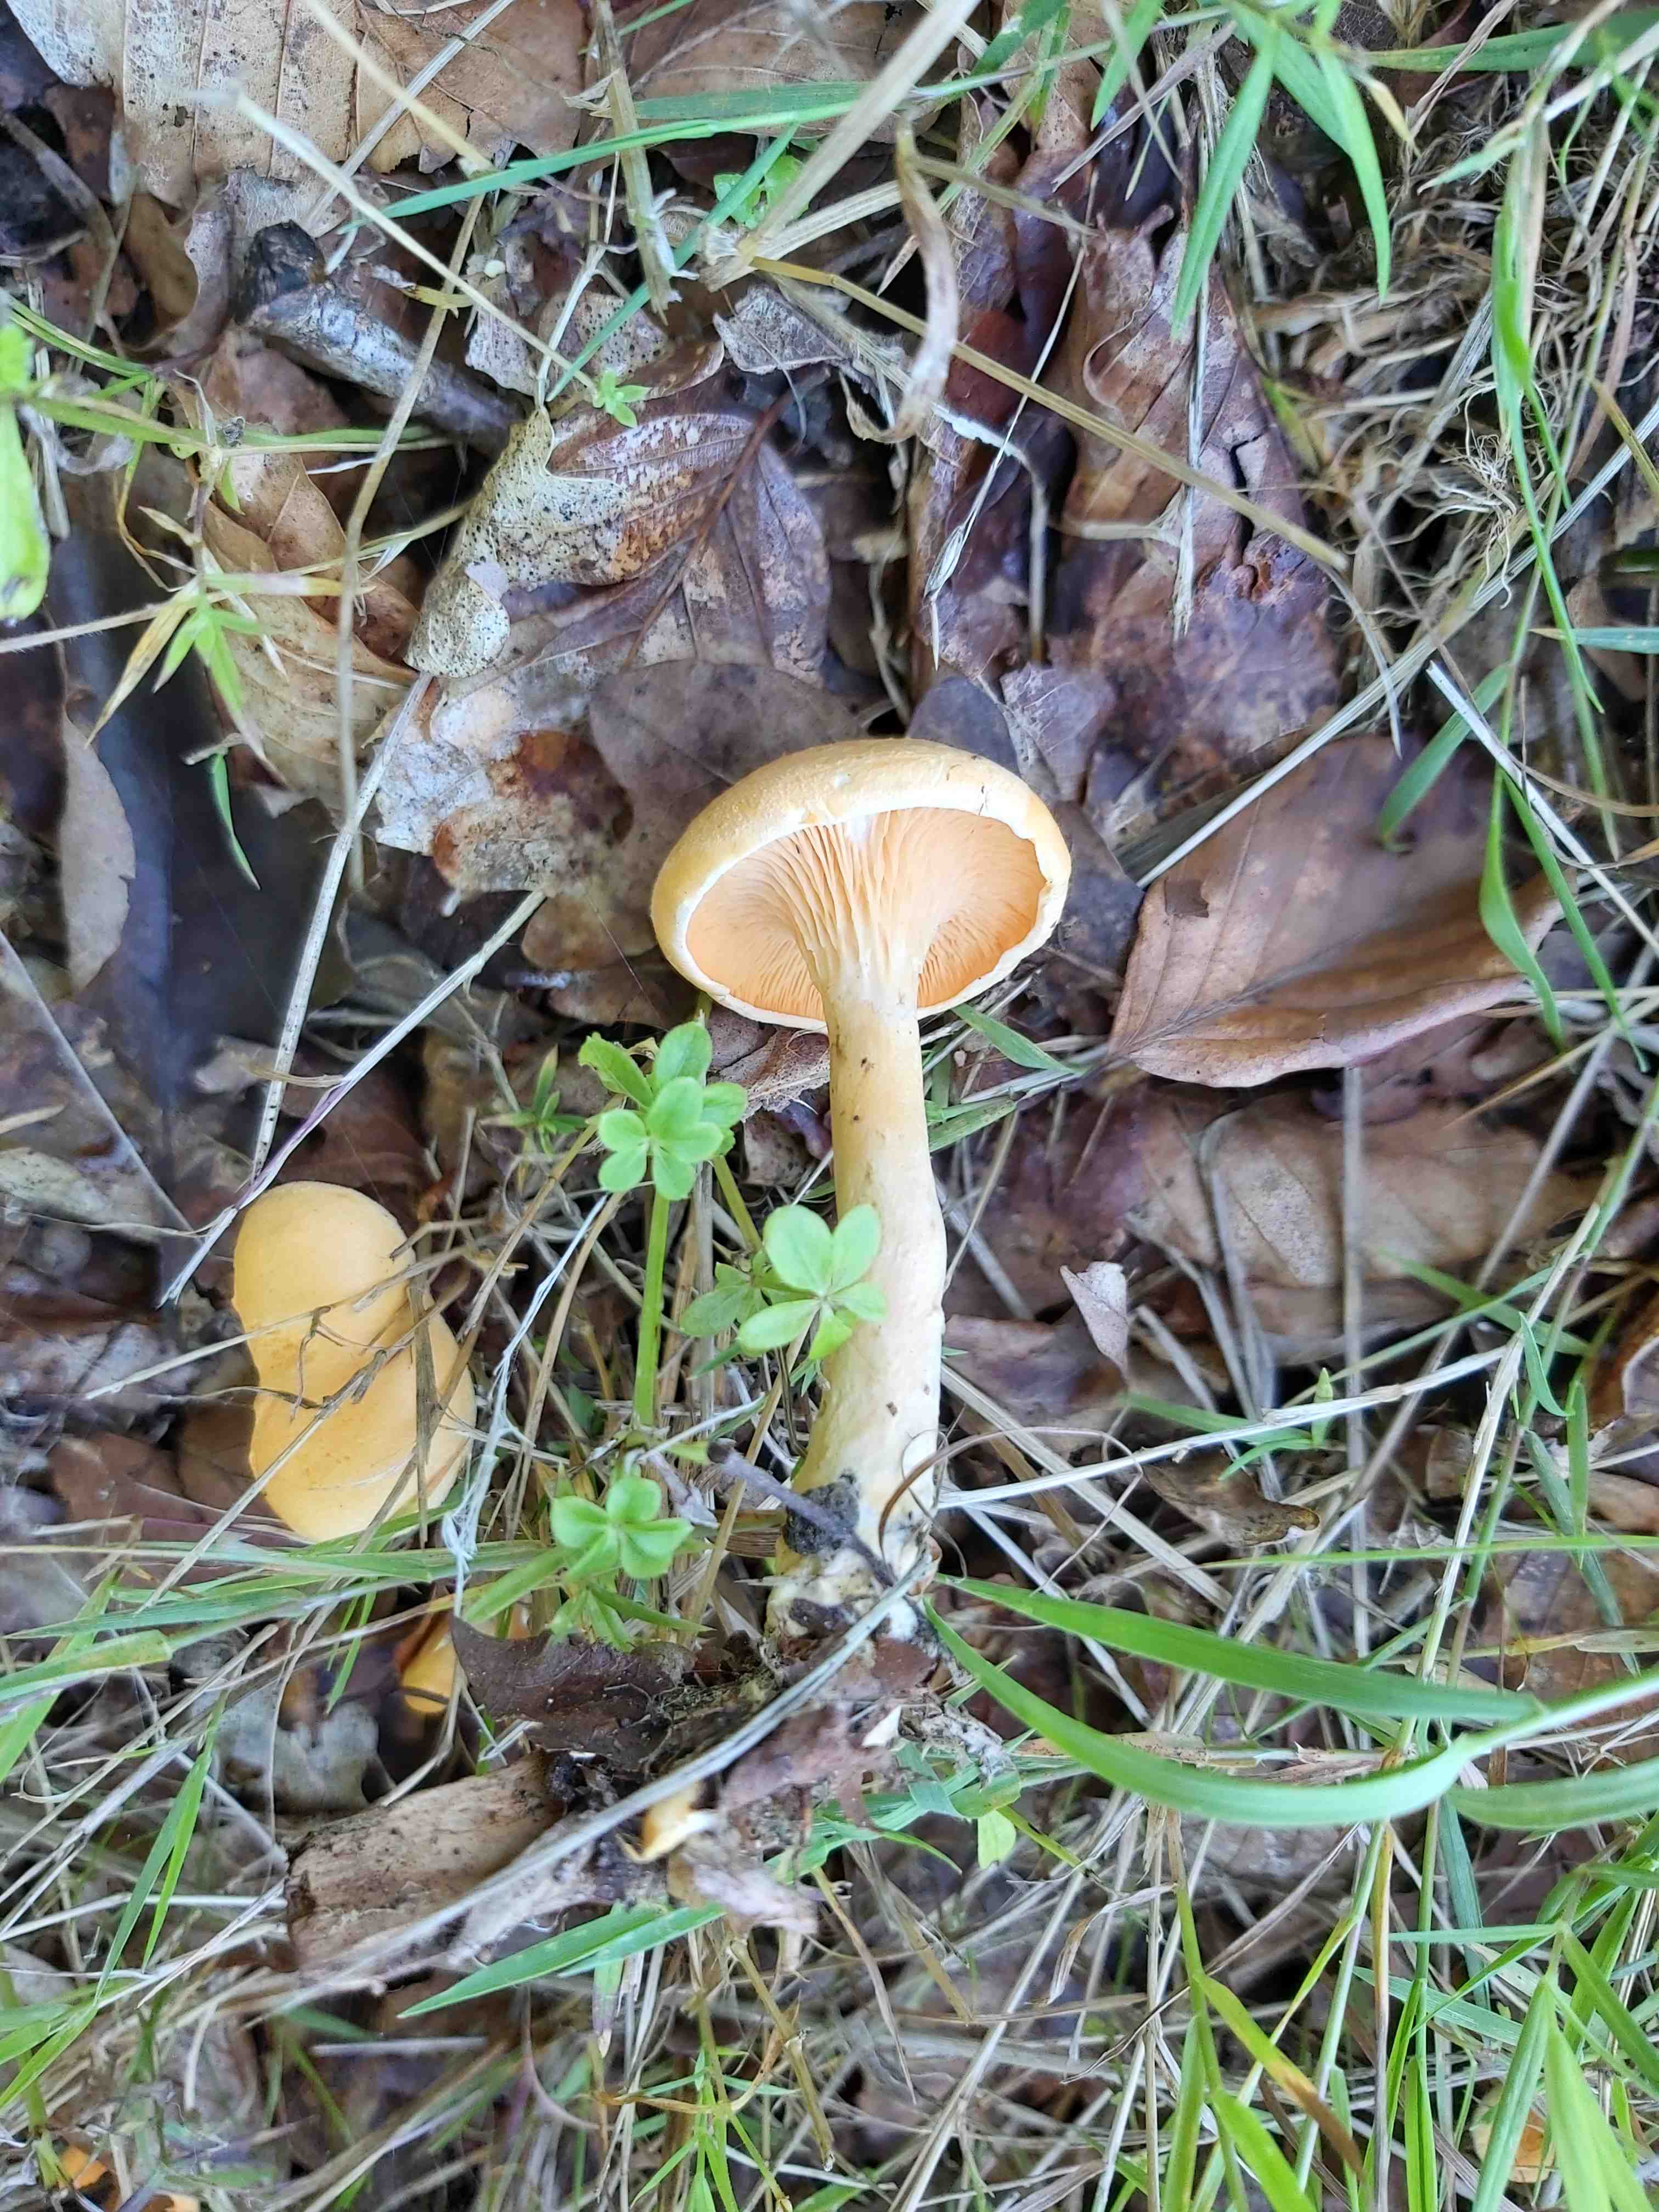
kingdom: Fungi
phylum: Basidiomycota
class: Agaricomycetes
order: Boletales
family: Hygrophoropsidaceae
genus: Hygrophoropsis
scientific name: Hygrophoropsis aurantiaca
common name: almindelig orangekantarel
